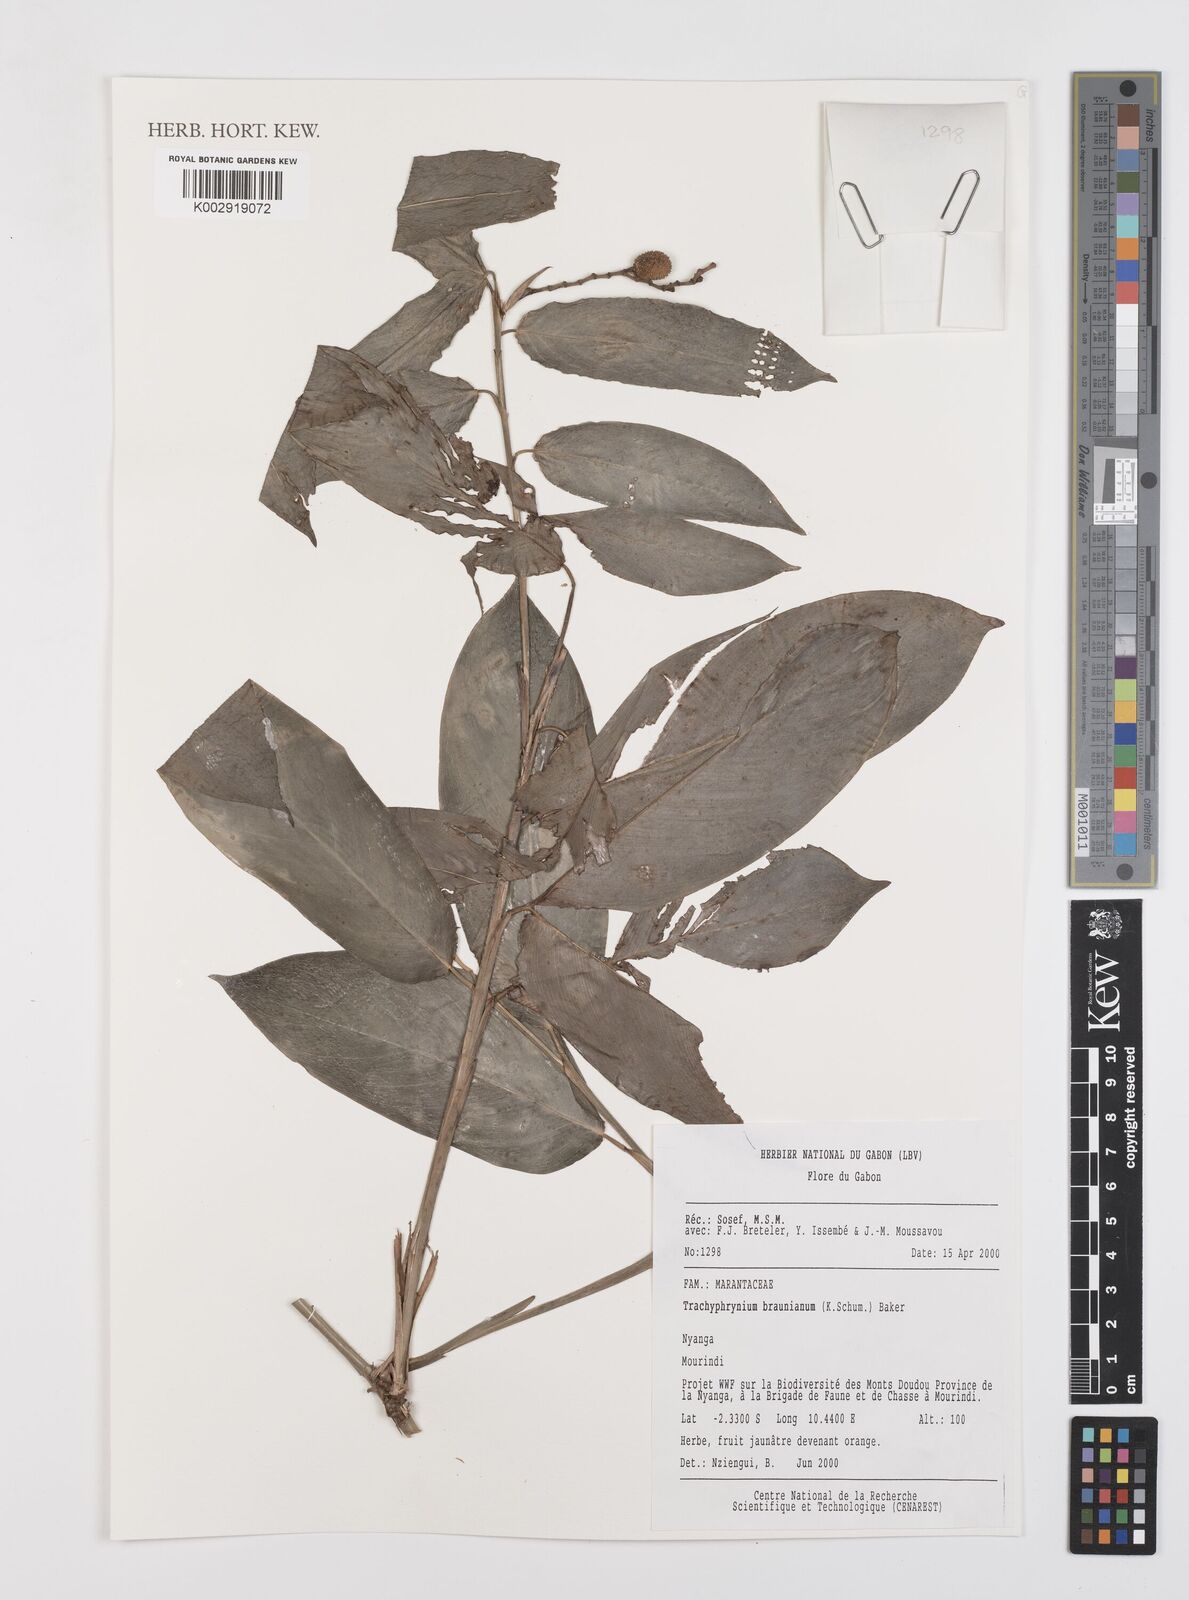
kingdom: Plantae
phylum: Tracheophyta
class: Liliopsida
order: Zingiberales
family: Marantaceae
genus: Trachyphrynium
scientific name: Trachyphrynium braunianum
